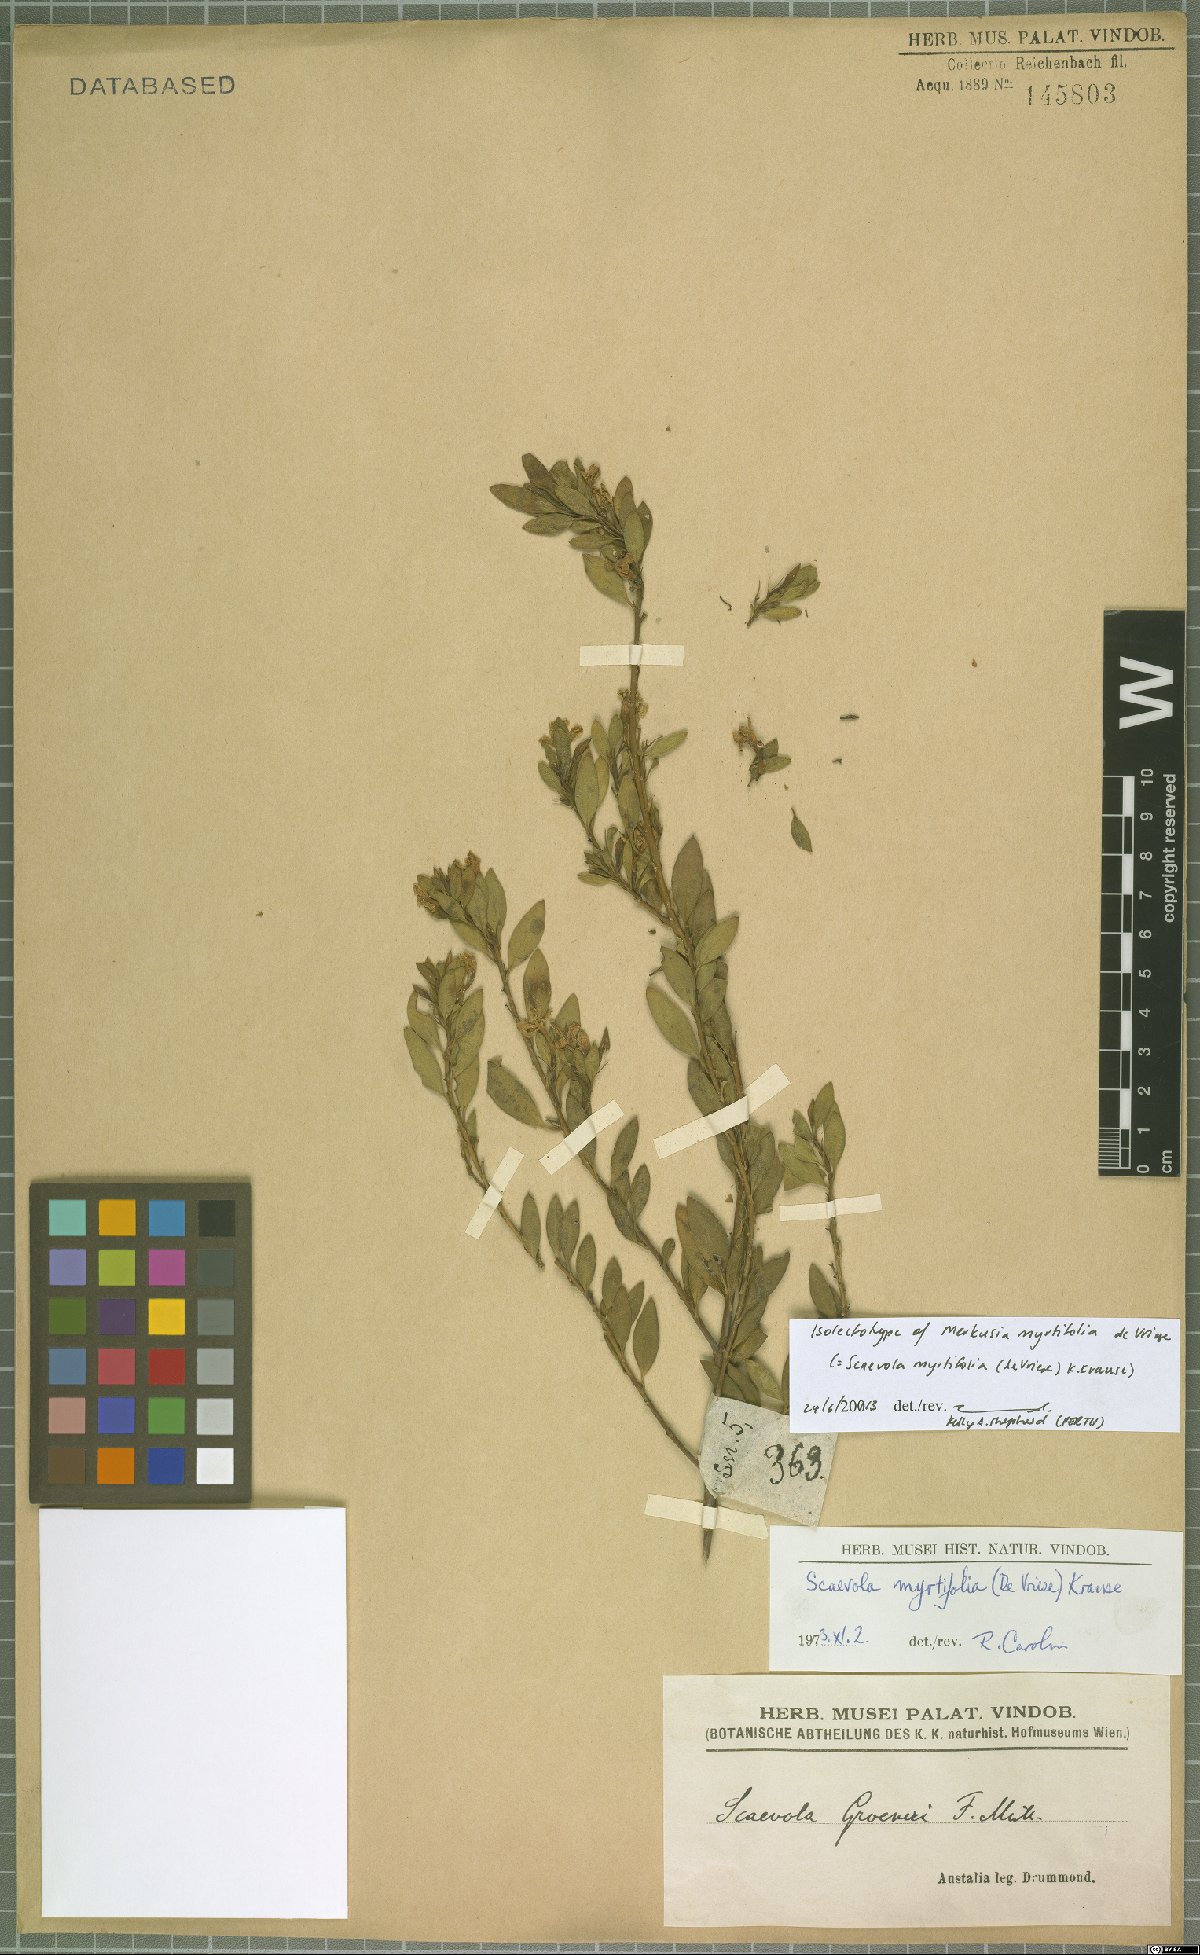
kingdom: Plantae
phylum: Tracheophyta
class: Magnoliopsida
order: Asterales
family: Goodeniaceae
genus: Scaevola
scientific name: Scaevola myrtifolia
